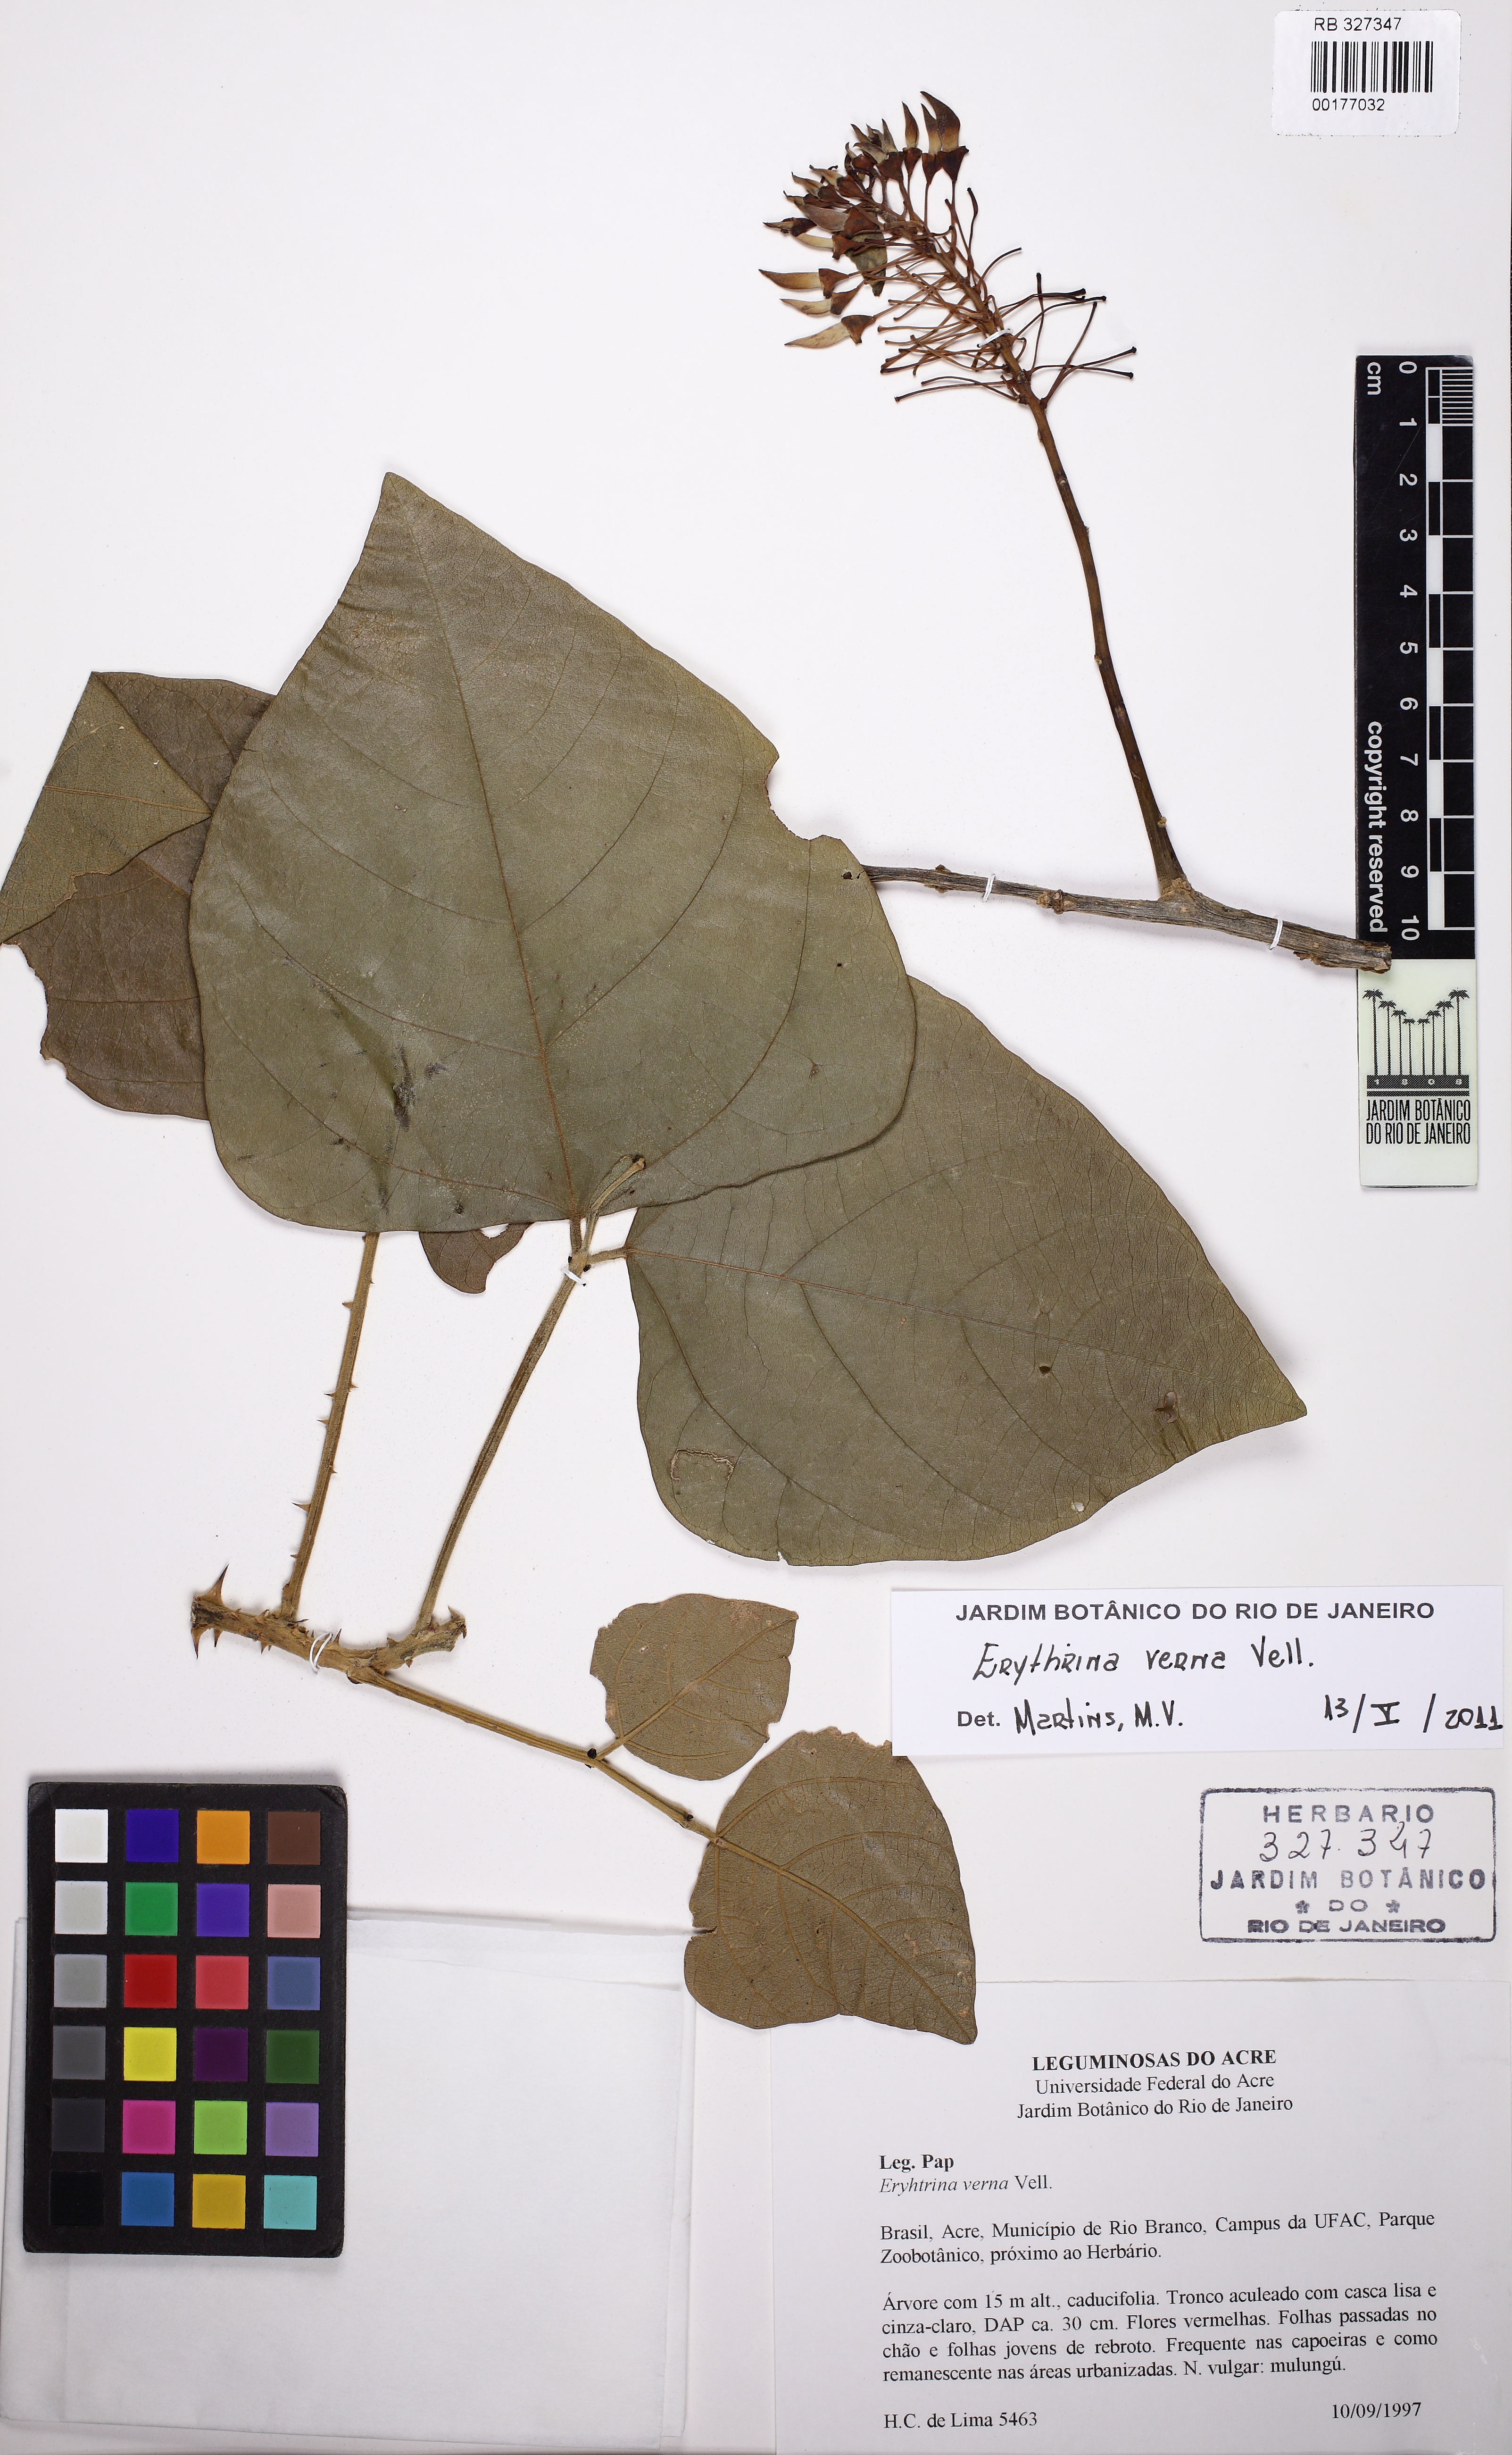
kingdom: Plantae
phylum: Tracheophyta
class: Magnoliopsida
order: Fabales
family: Fabaceae
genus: Erythrina
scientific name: Erythrina verna
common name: Mulungú
